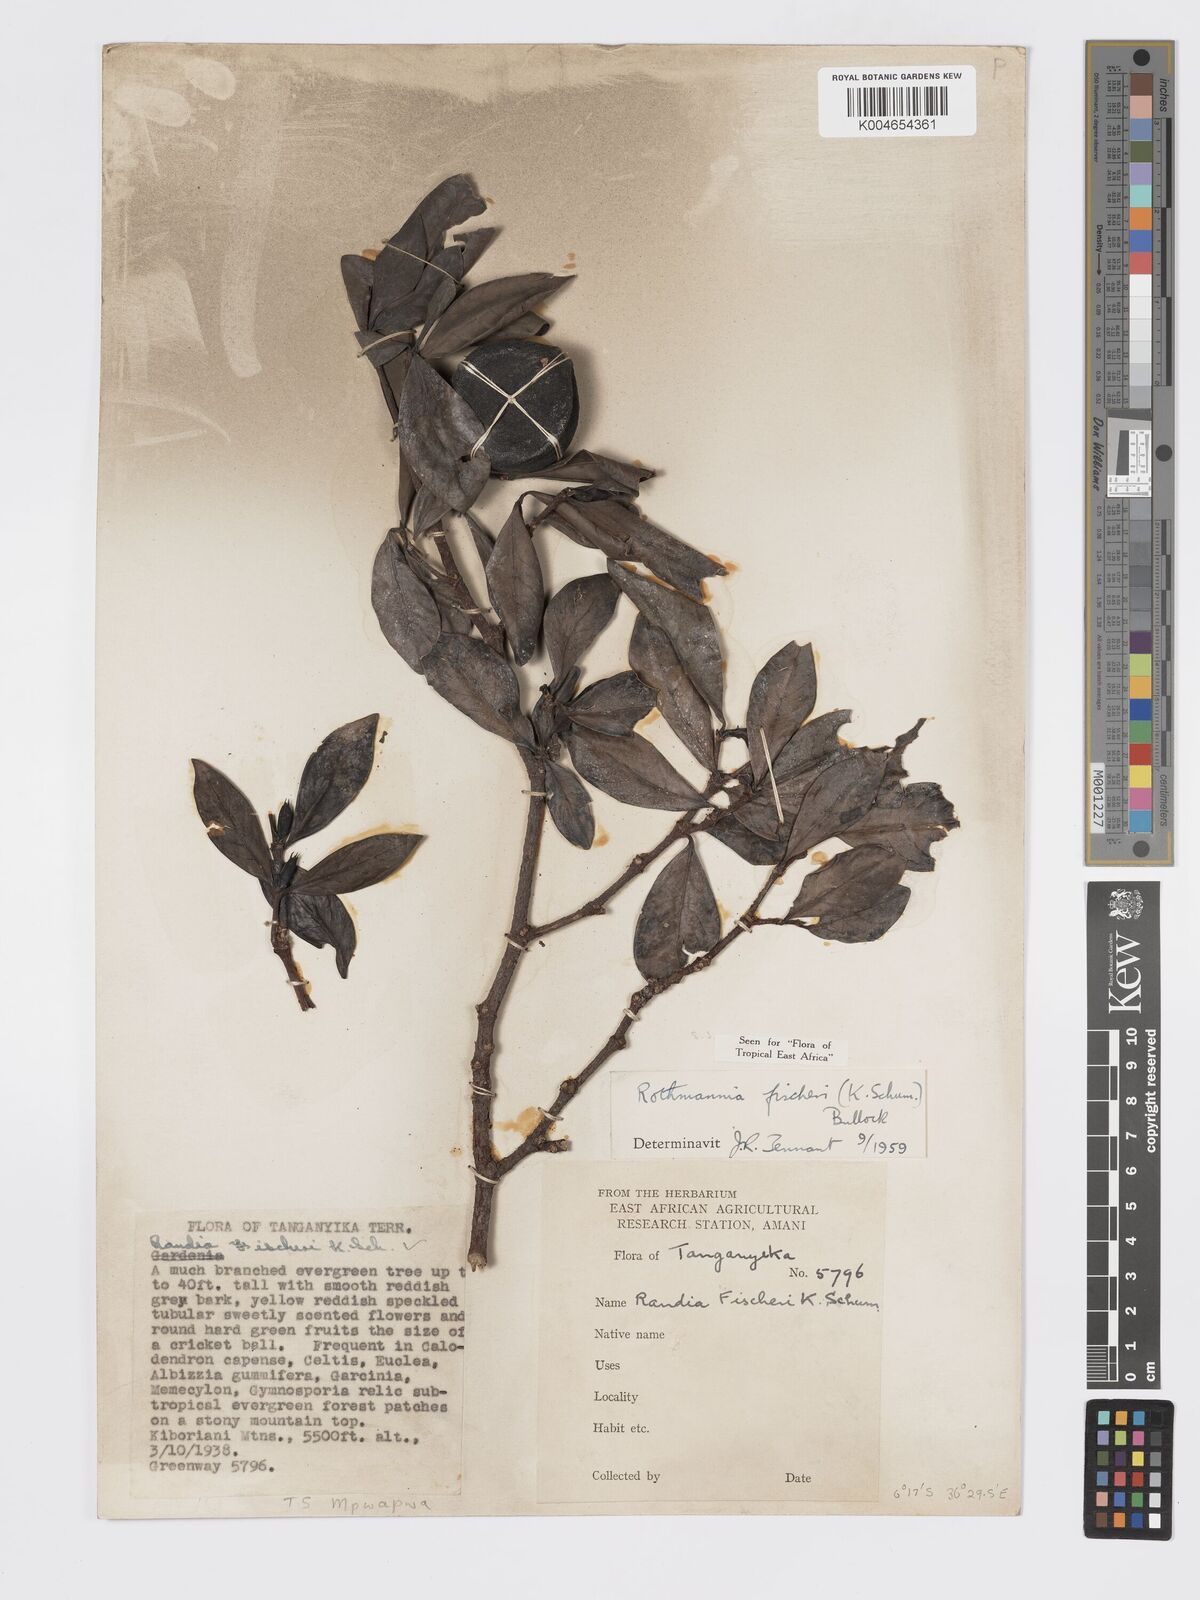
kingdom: Plantae
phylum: Tracheophyta
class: Magnoliopsida
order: Gentianales
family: Rubiaceae
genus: Rothmannia
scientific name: Rothmannia fischeri
